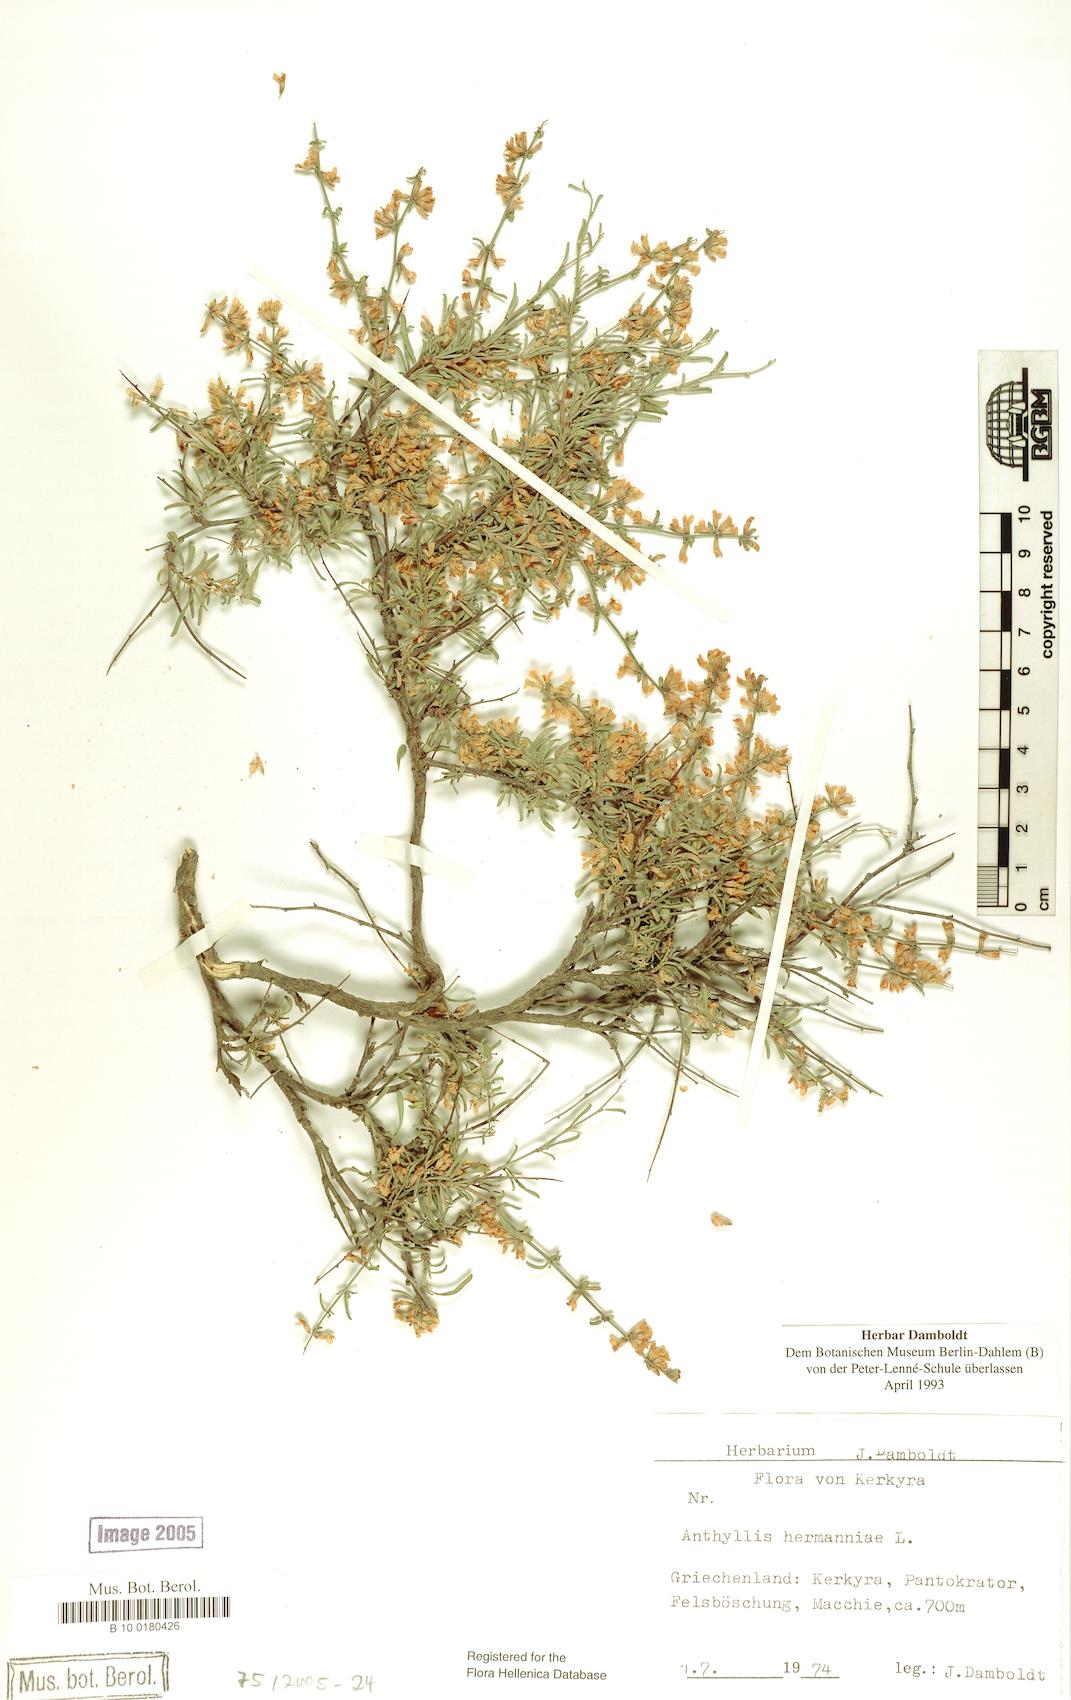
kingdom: Plantae
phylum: Tracheophyta
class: Magnoliopsida
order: Fabales
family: Fabaceae
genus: Anthyllis
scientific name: Anthyllis hermanniae
